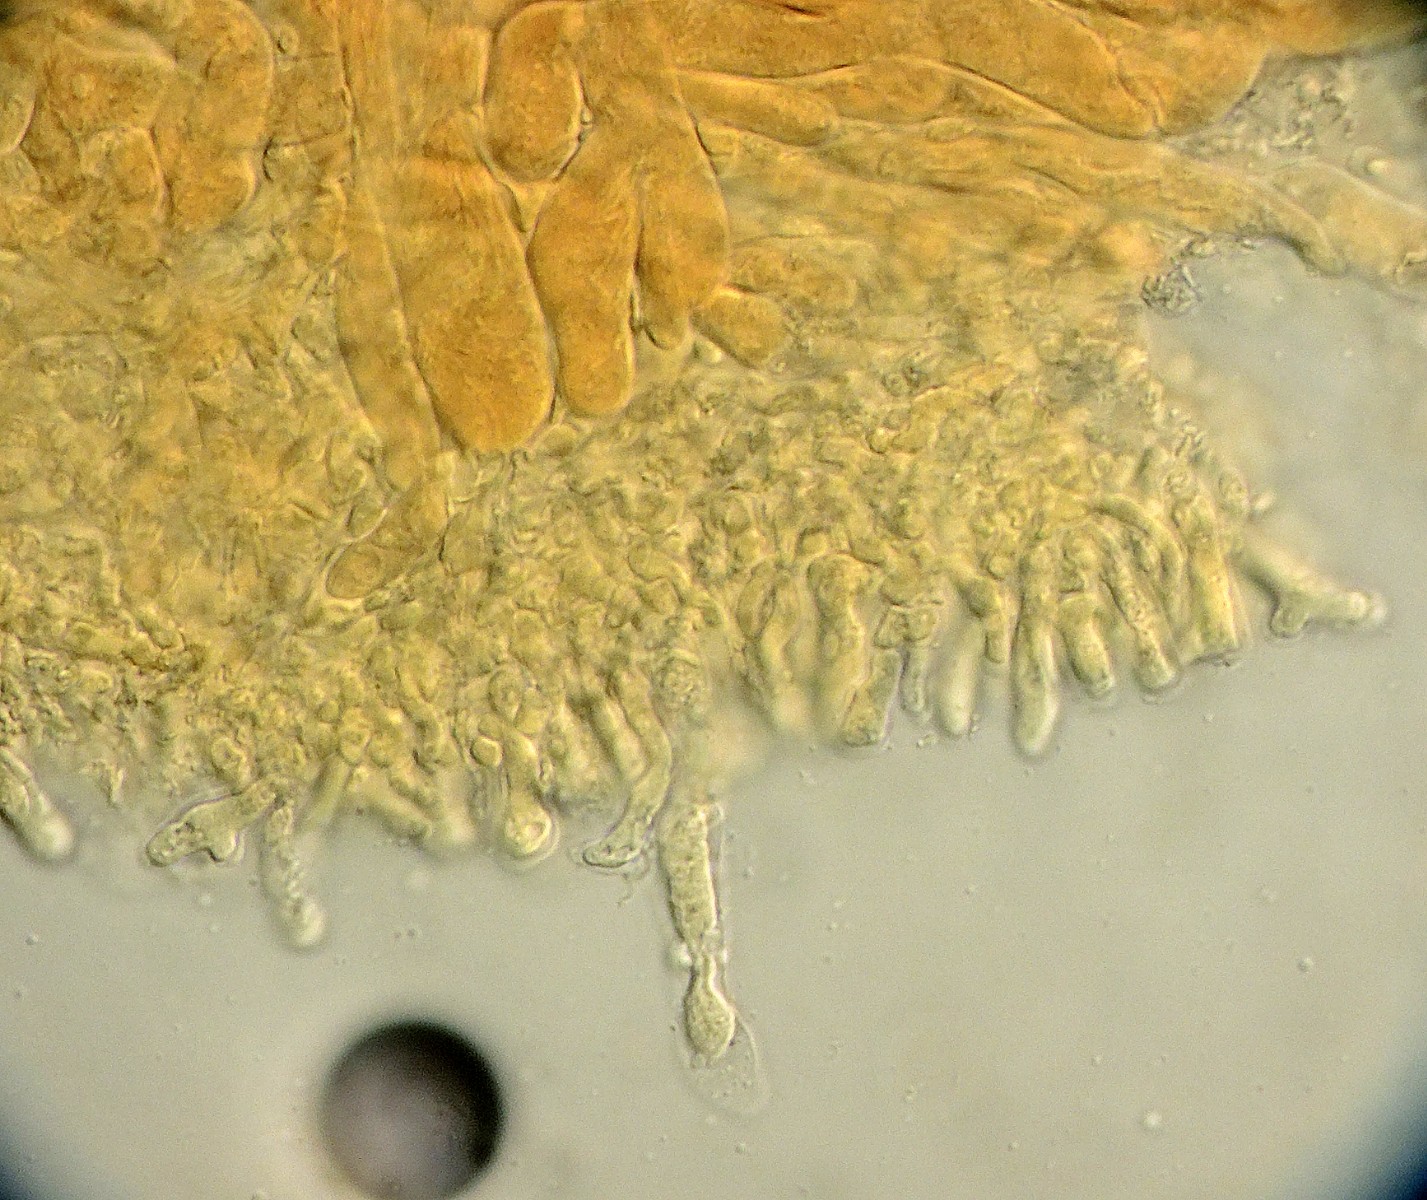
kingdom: Fungi
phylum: Basidiomycota
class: Agaricomycetes
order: Agaricales
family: Omphalotaceae
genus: Connopus
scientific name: Connopus acervatus
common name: tue-fladhat
